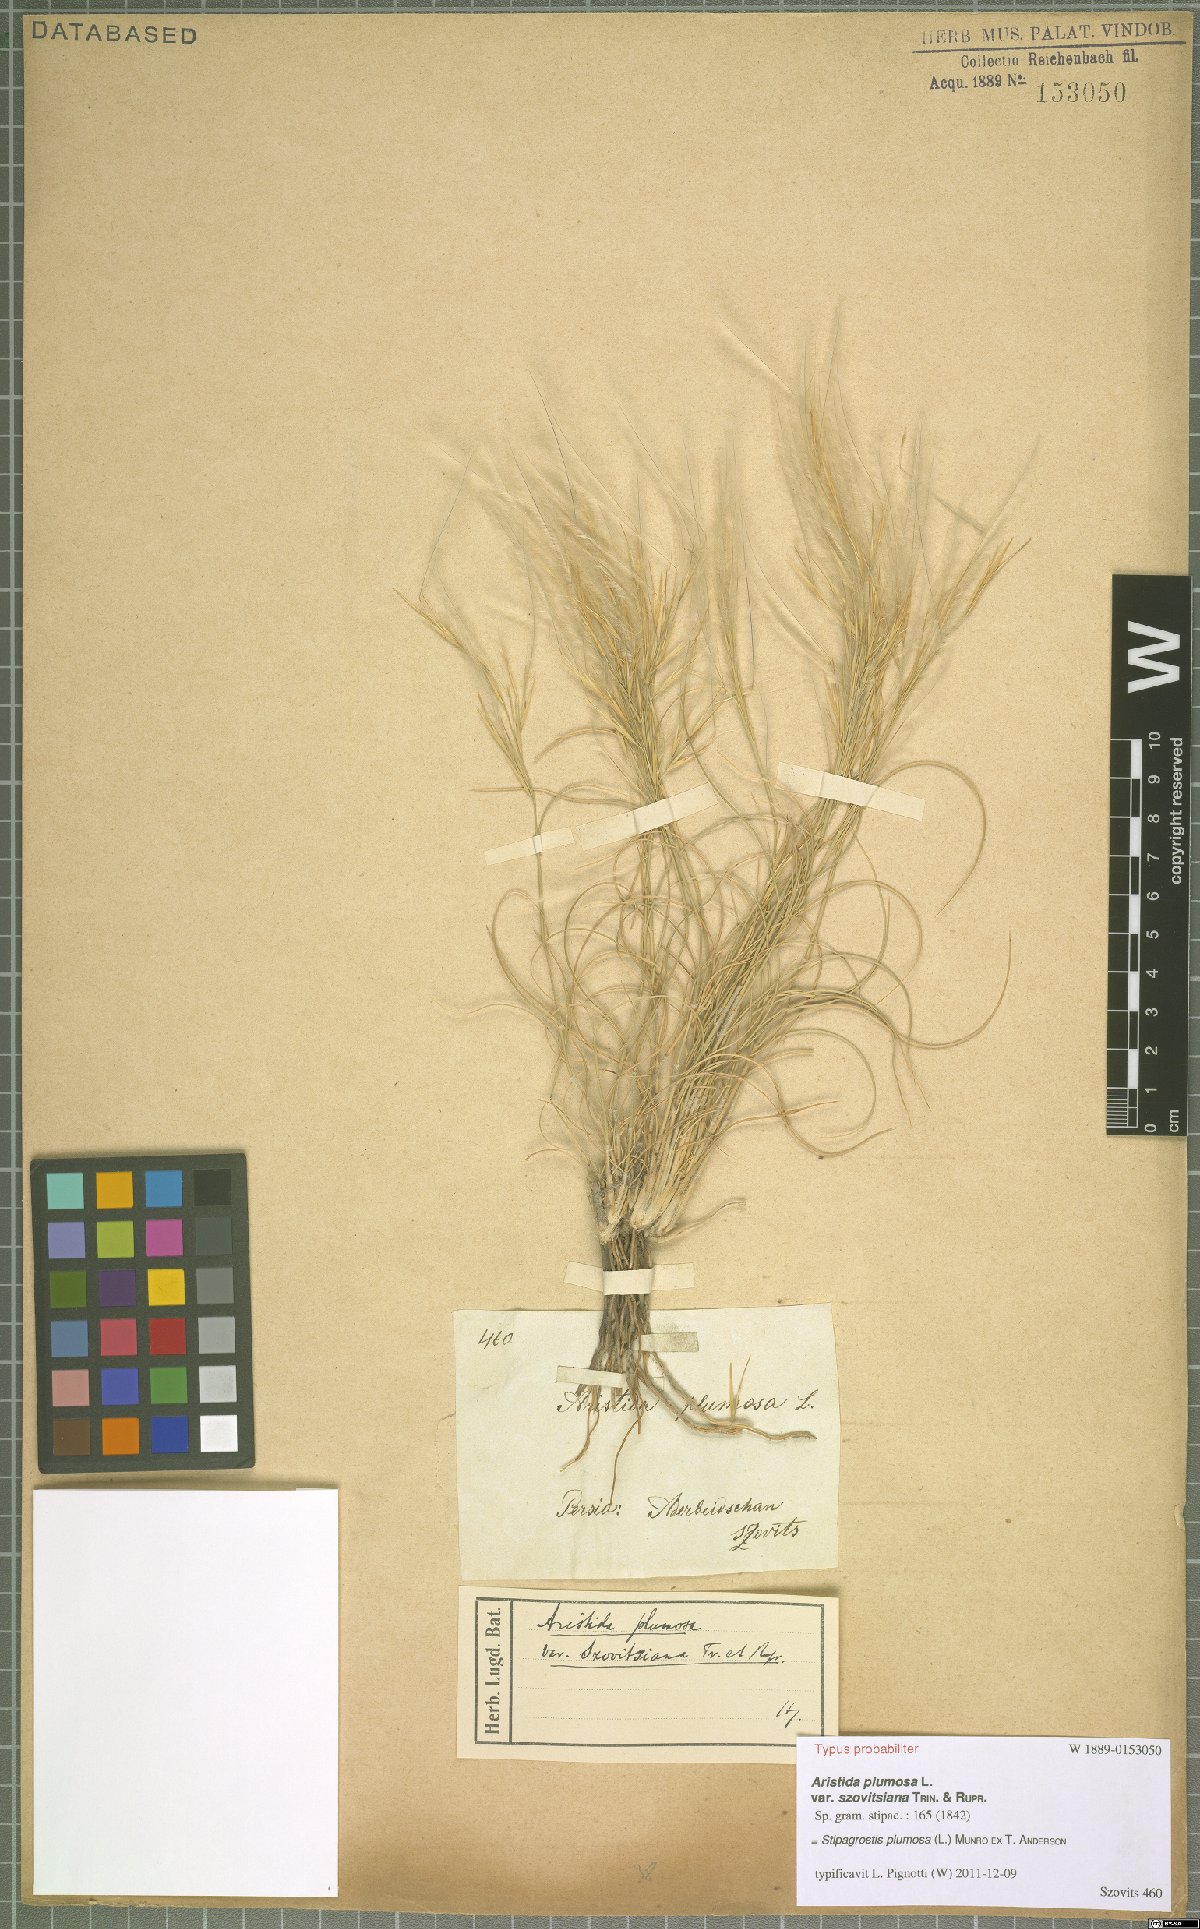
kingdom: Plantae
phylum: Tracheophyta
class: Liliopsida
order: Poales
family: Poaceae
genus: Stipagrostis
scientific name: Stipagrostis plumosa
